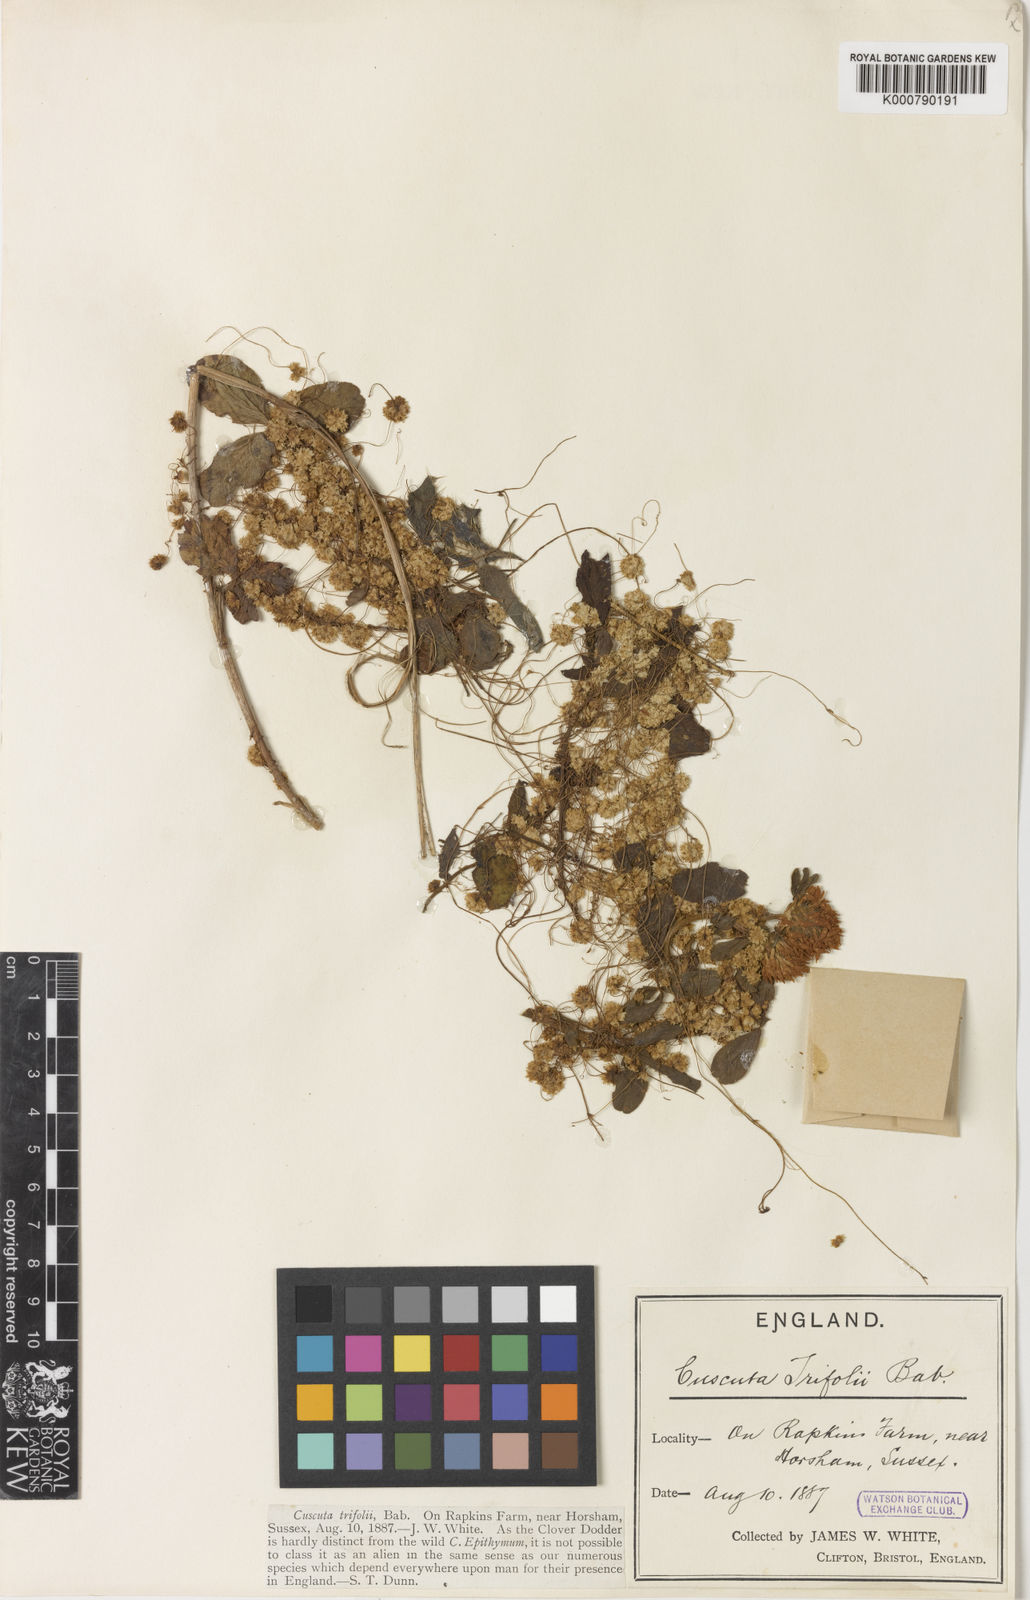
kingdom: Plantae
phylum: Tracheophyta
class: Magnoliopsida
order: Solanales
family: Convolvulaceae
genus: Cuscuta
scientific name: Cuscuta epithymum
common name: Clover dodder
